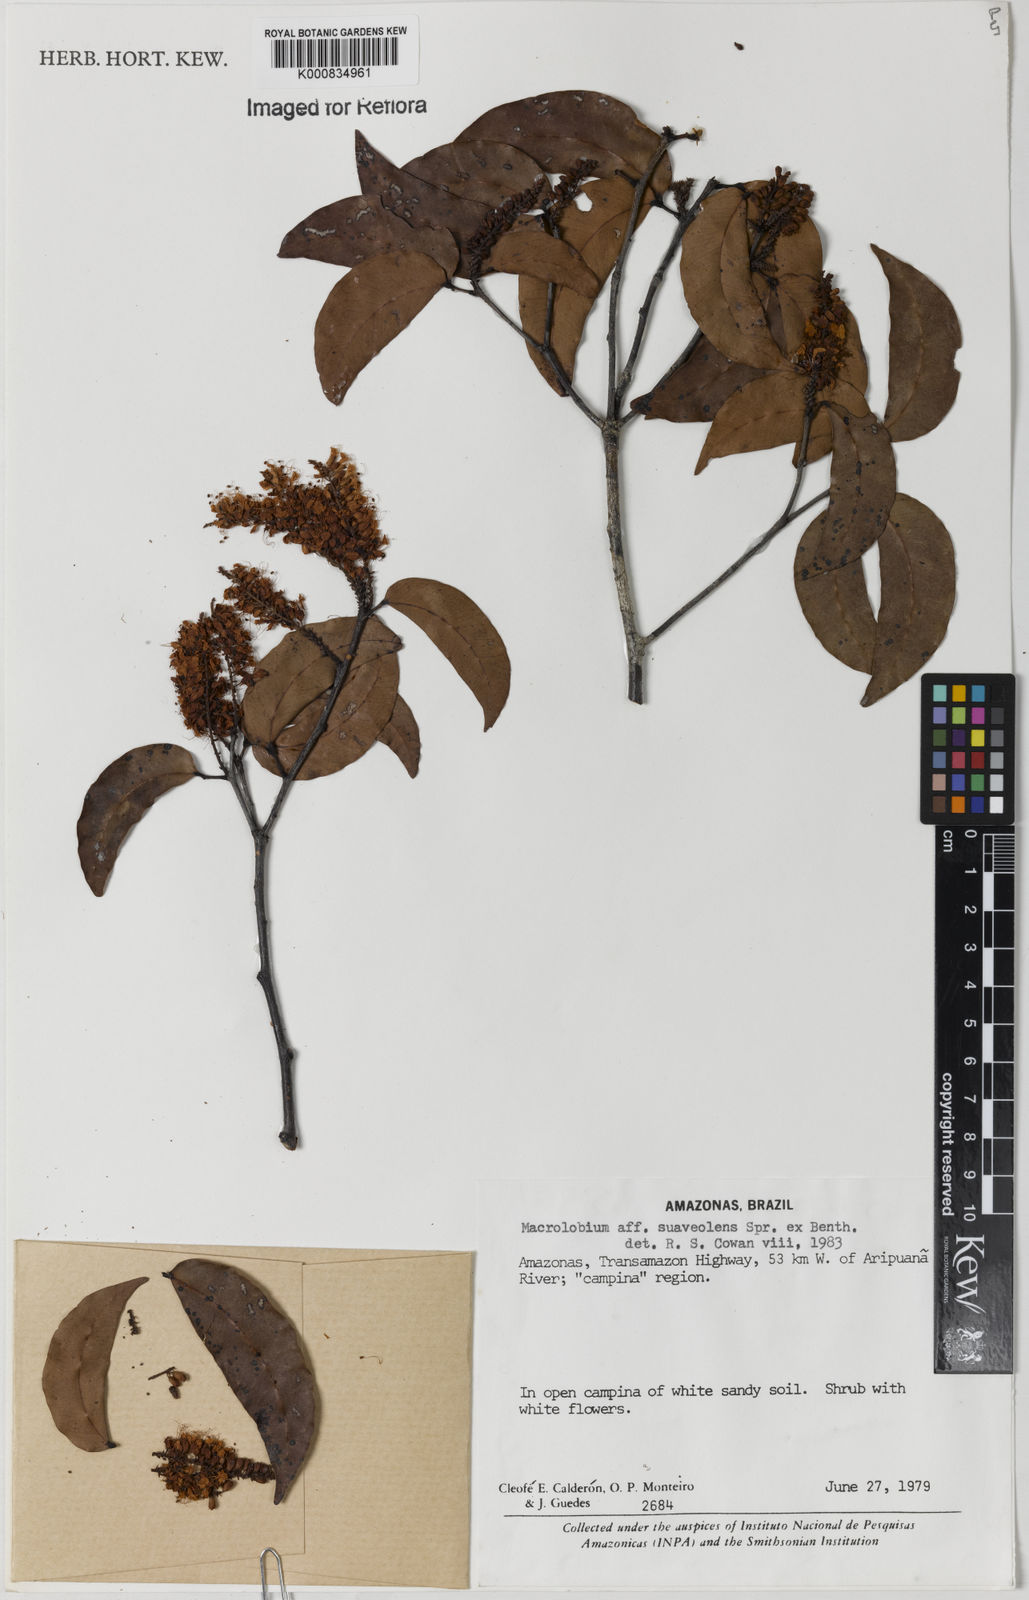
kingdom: Plantae
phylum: Tracheophyta
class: Magnoliopsida
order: Fabales
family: Fabaceae
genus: Macrolobium
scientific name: Macrolobium suaveolens
